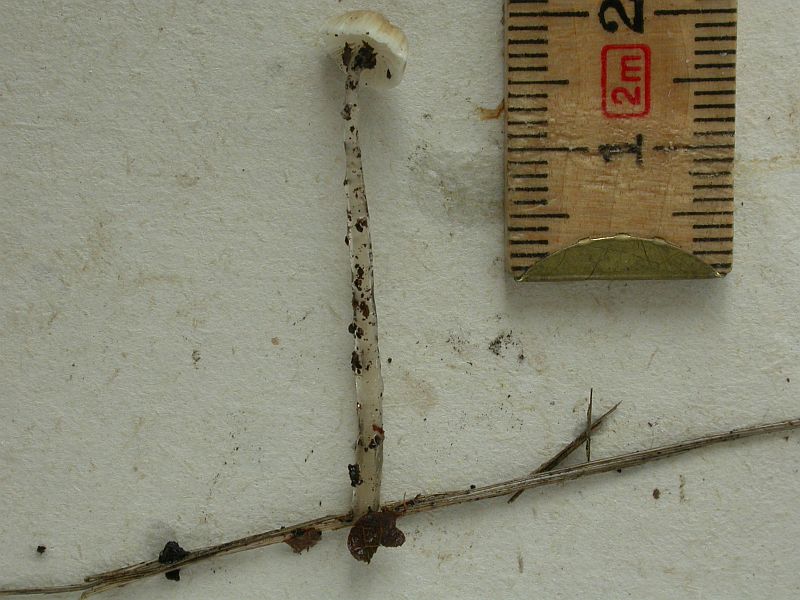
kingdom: Fungi
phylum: Basidiomycota
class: Agaricomycetes
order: Agaricales
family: Mycenaceae
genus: Roridomyces
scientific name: Roridomyces roridus
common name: slimfod
